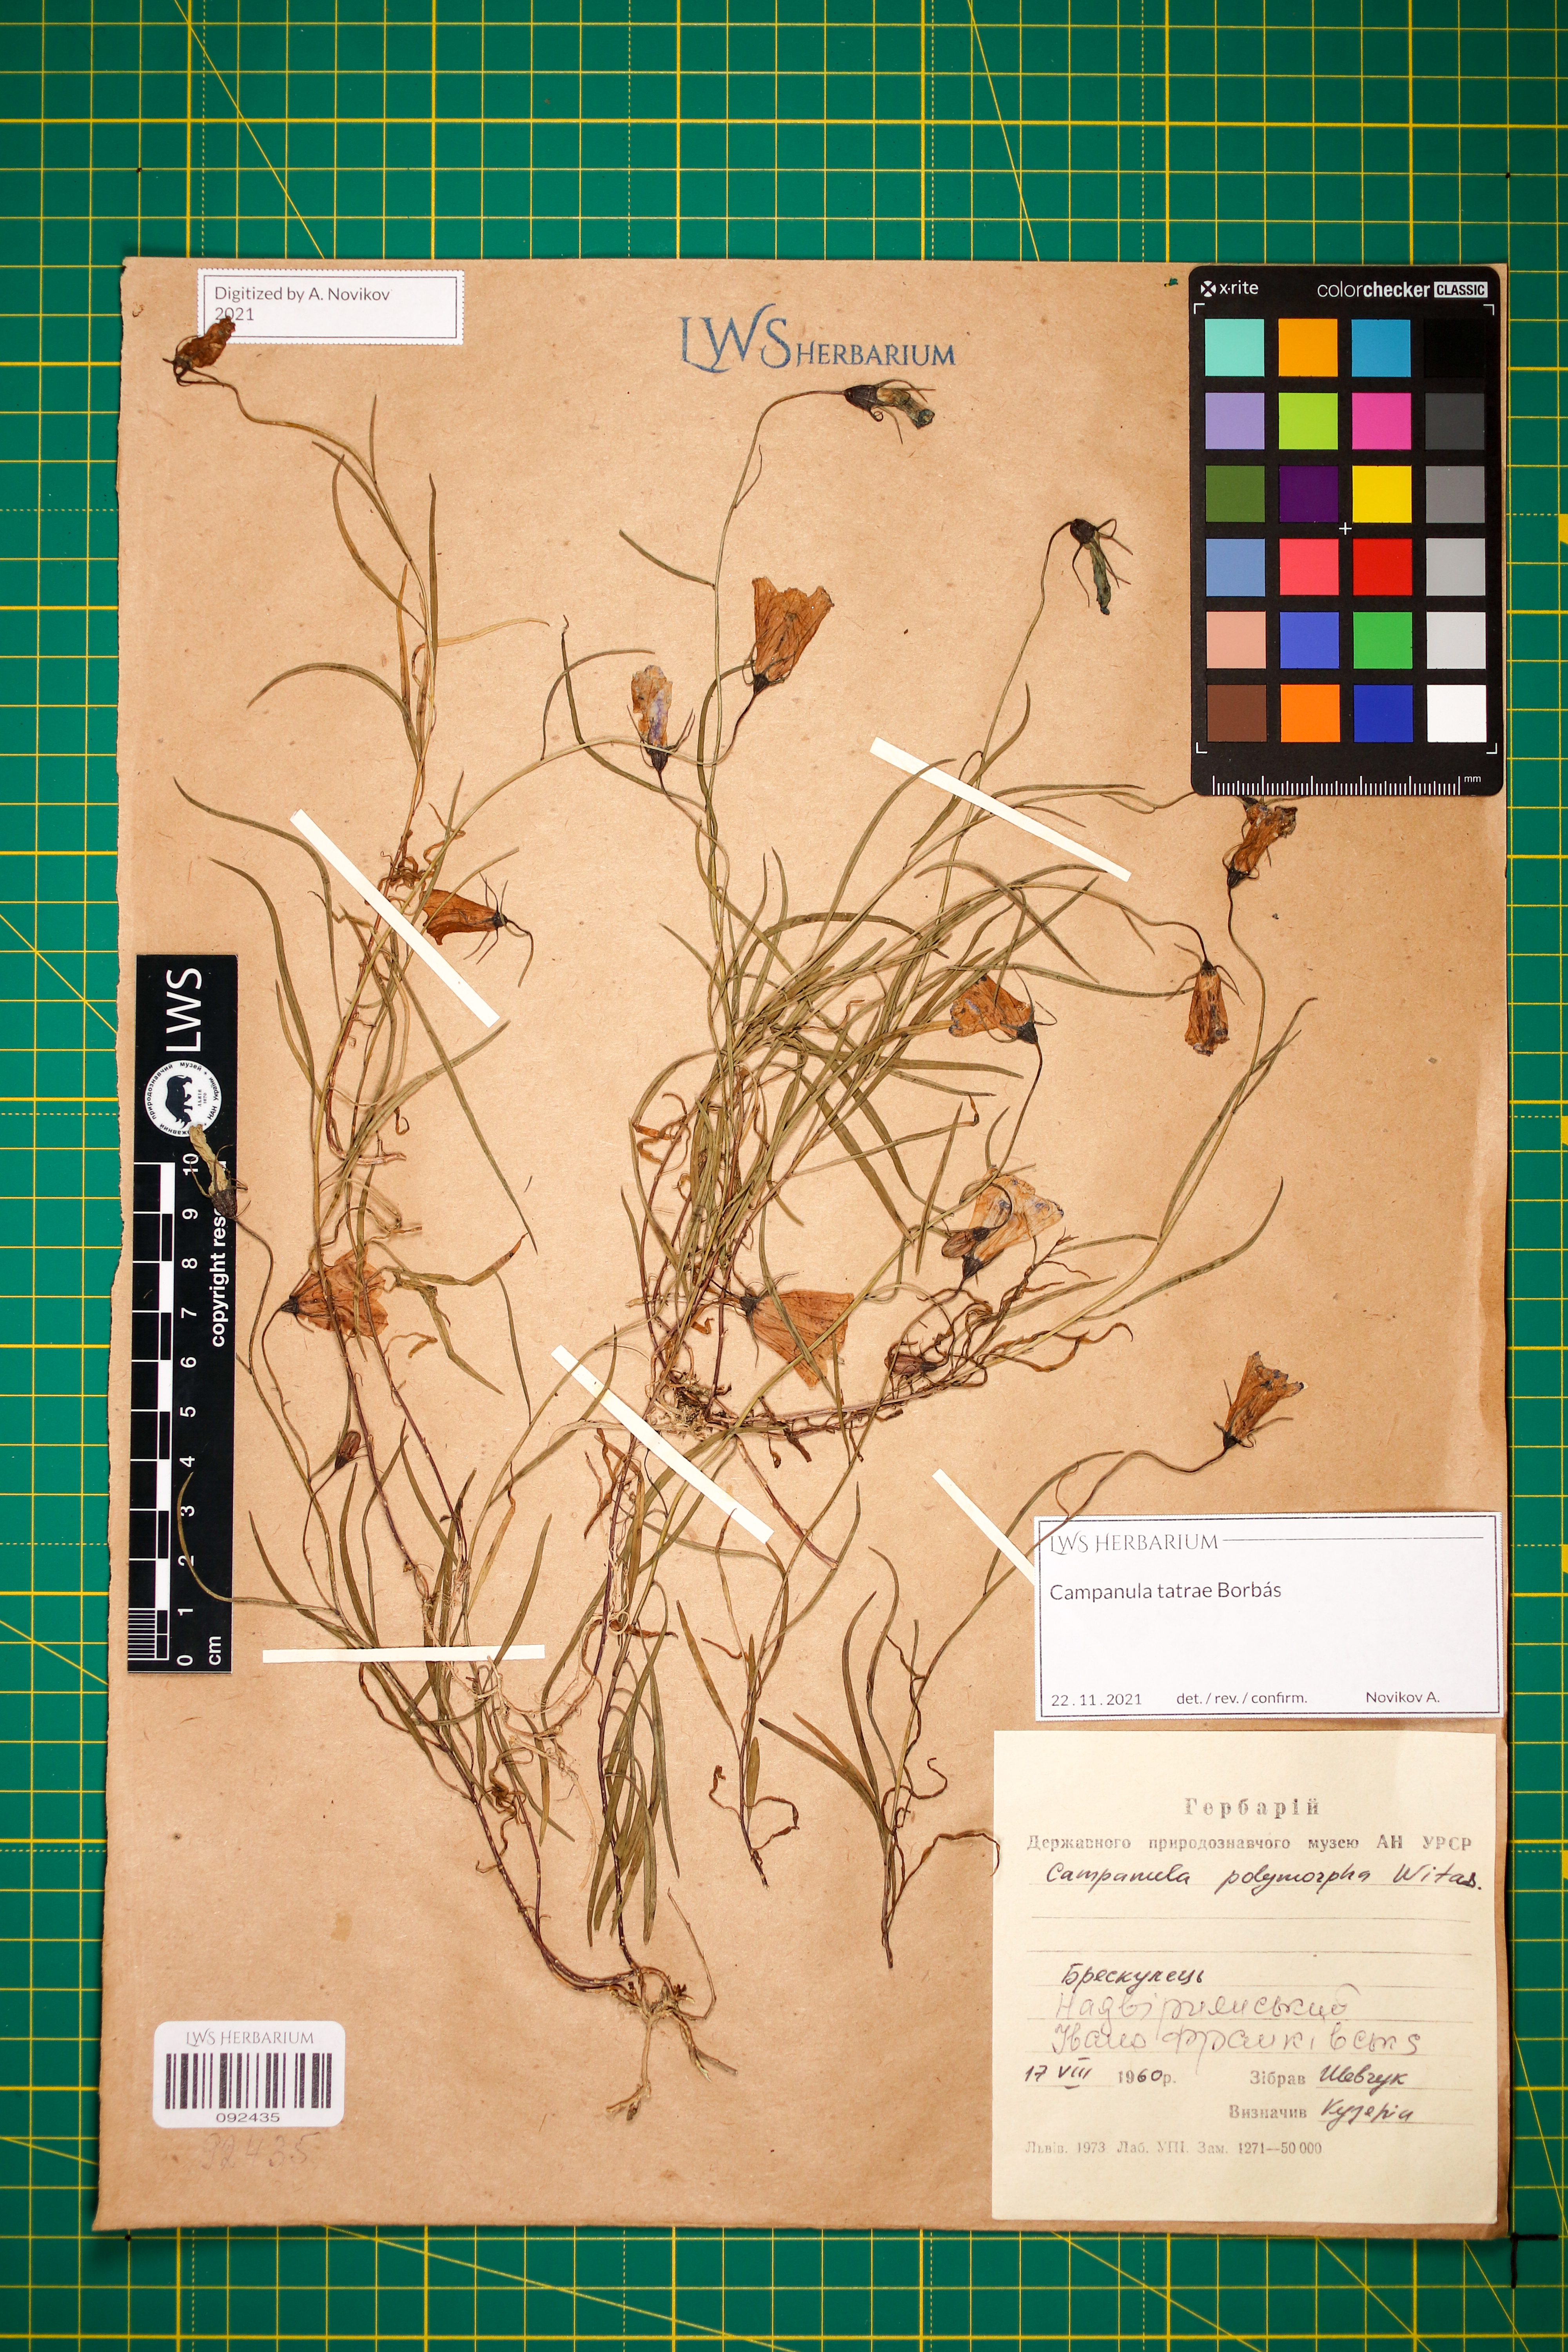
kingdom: Plantae
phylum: Tracheophyta
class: Magnoliopsida
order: Asterales
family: Campanulaceae
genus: Campanula
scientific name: Campanula tatrae
